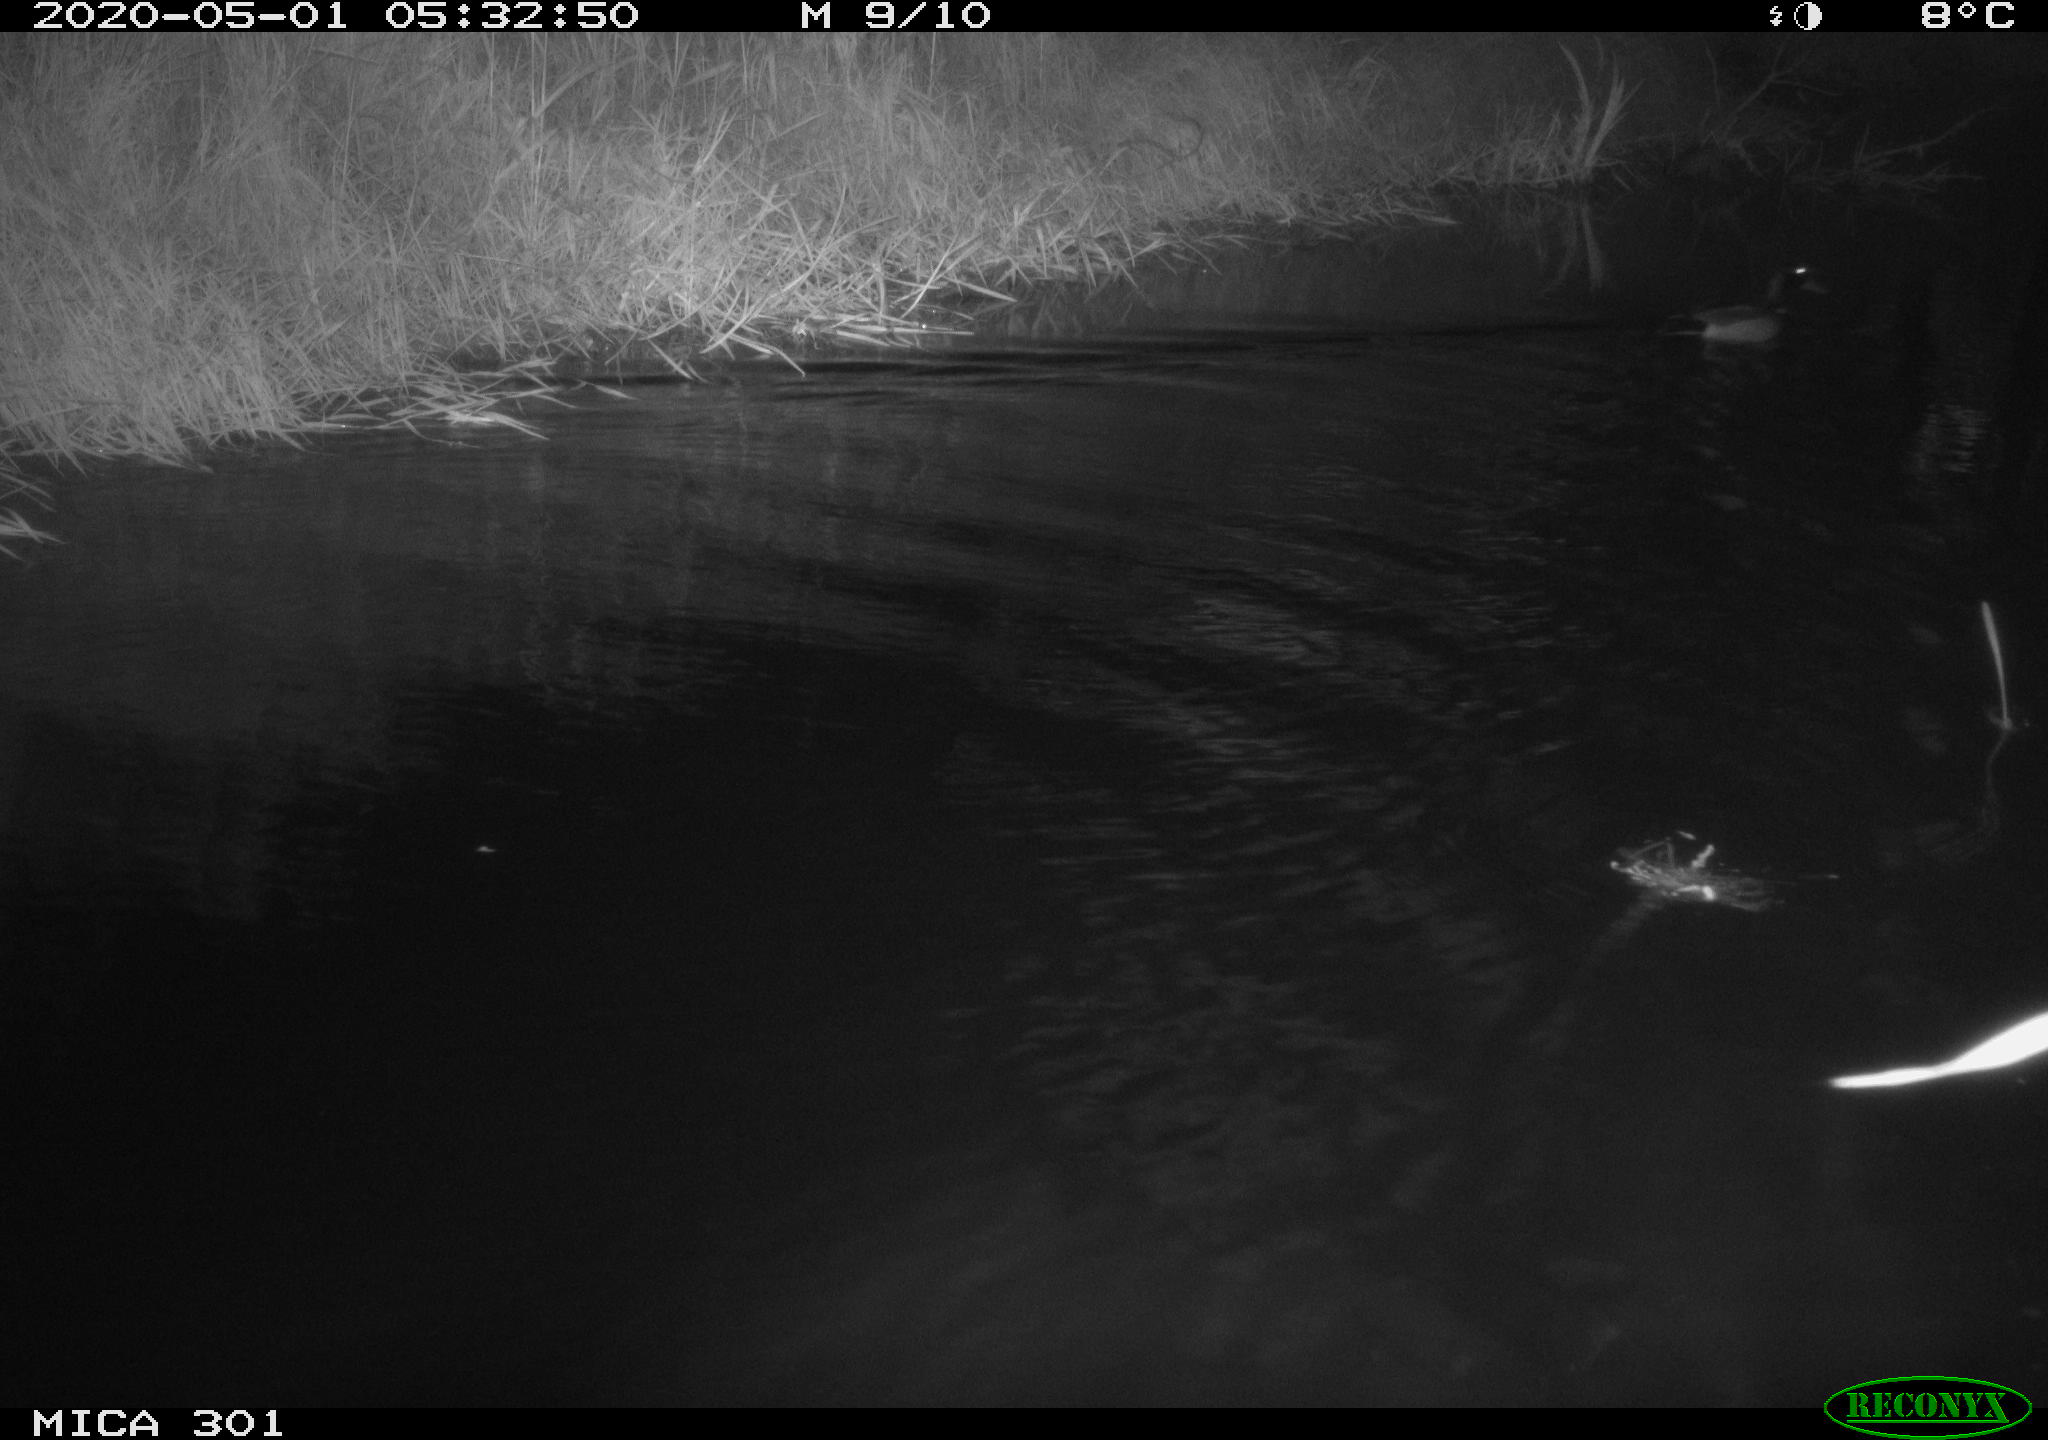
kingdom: Animalia
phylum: Chordata
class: Aves
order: Anseriformes
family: Anatidae
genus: Anas
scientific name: Anas platyrhynchos
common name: Mallard
